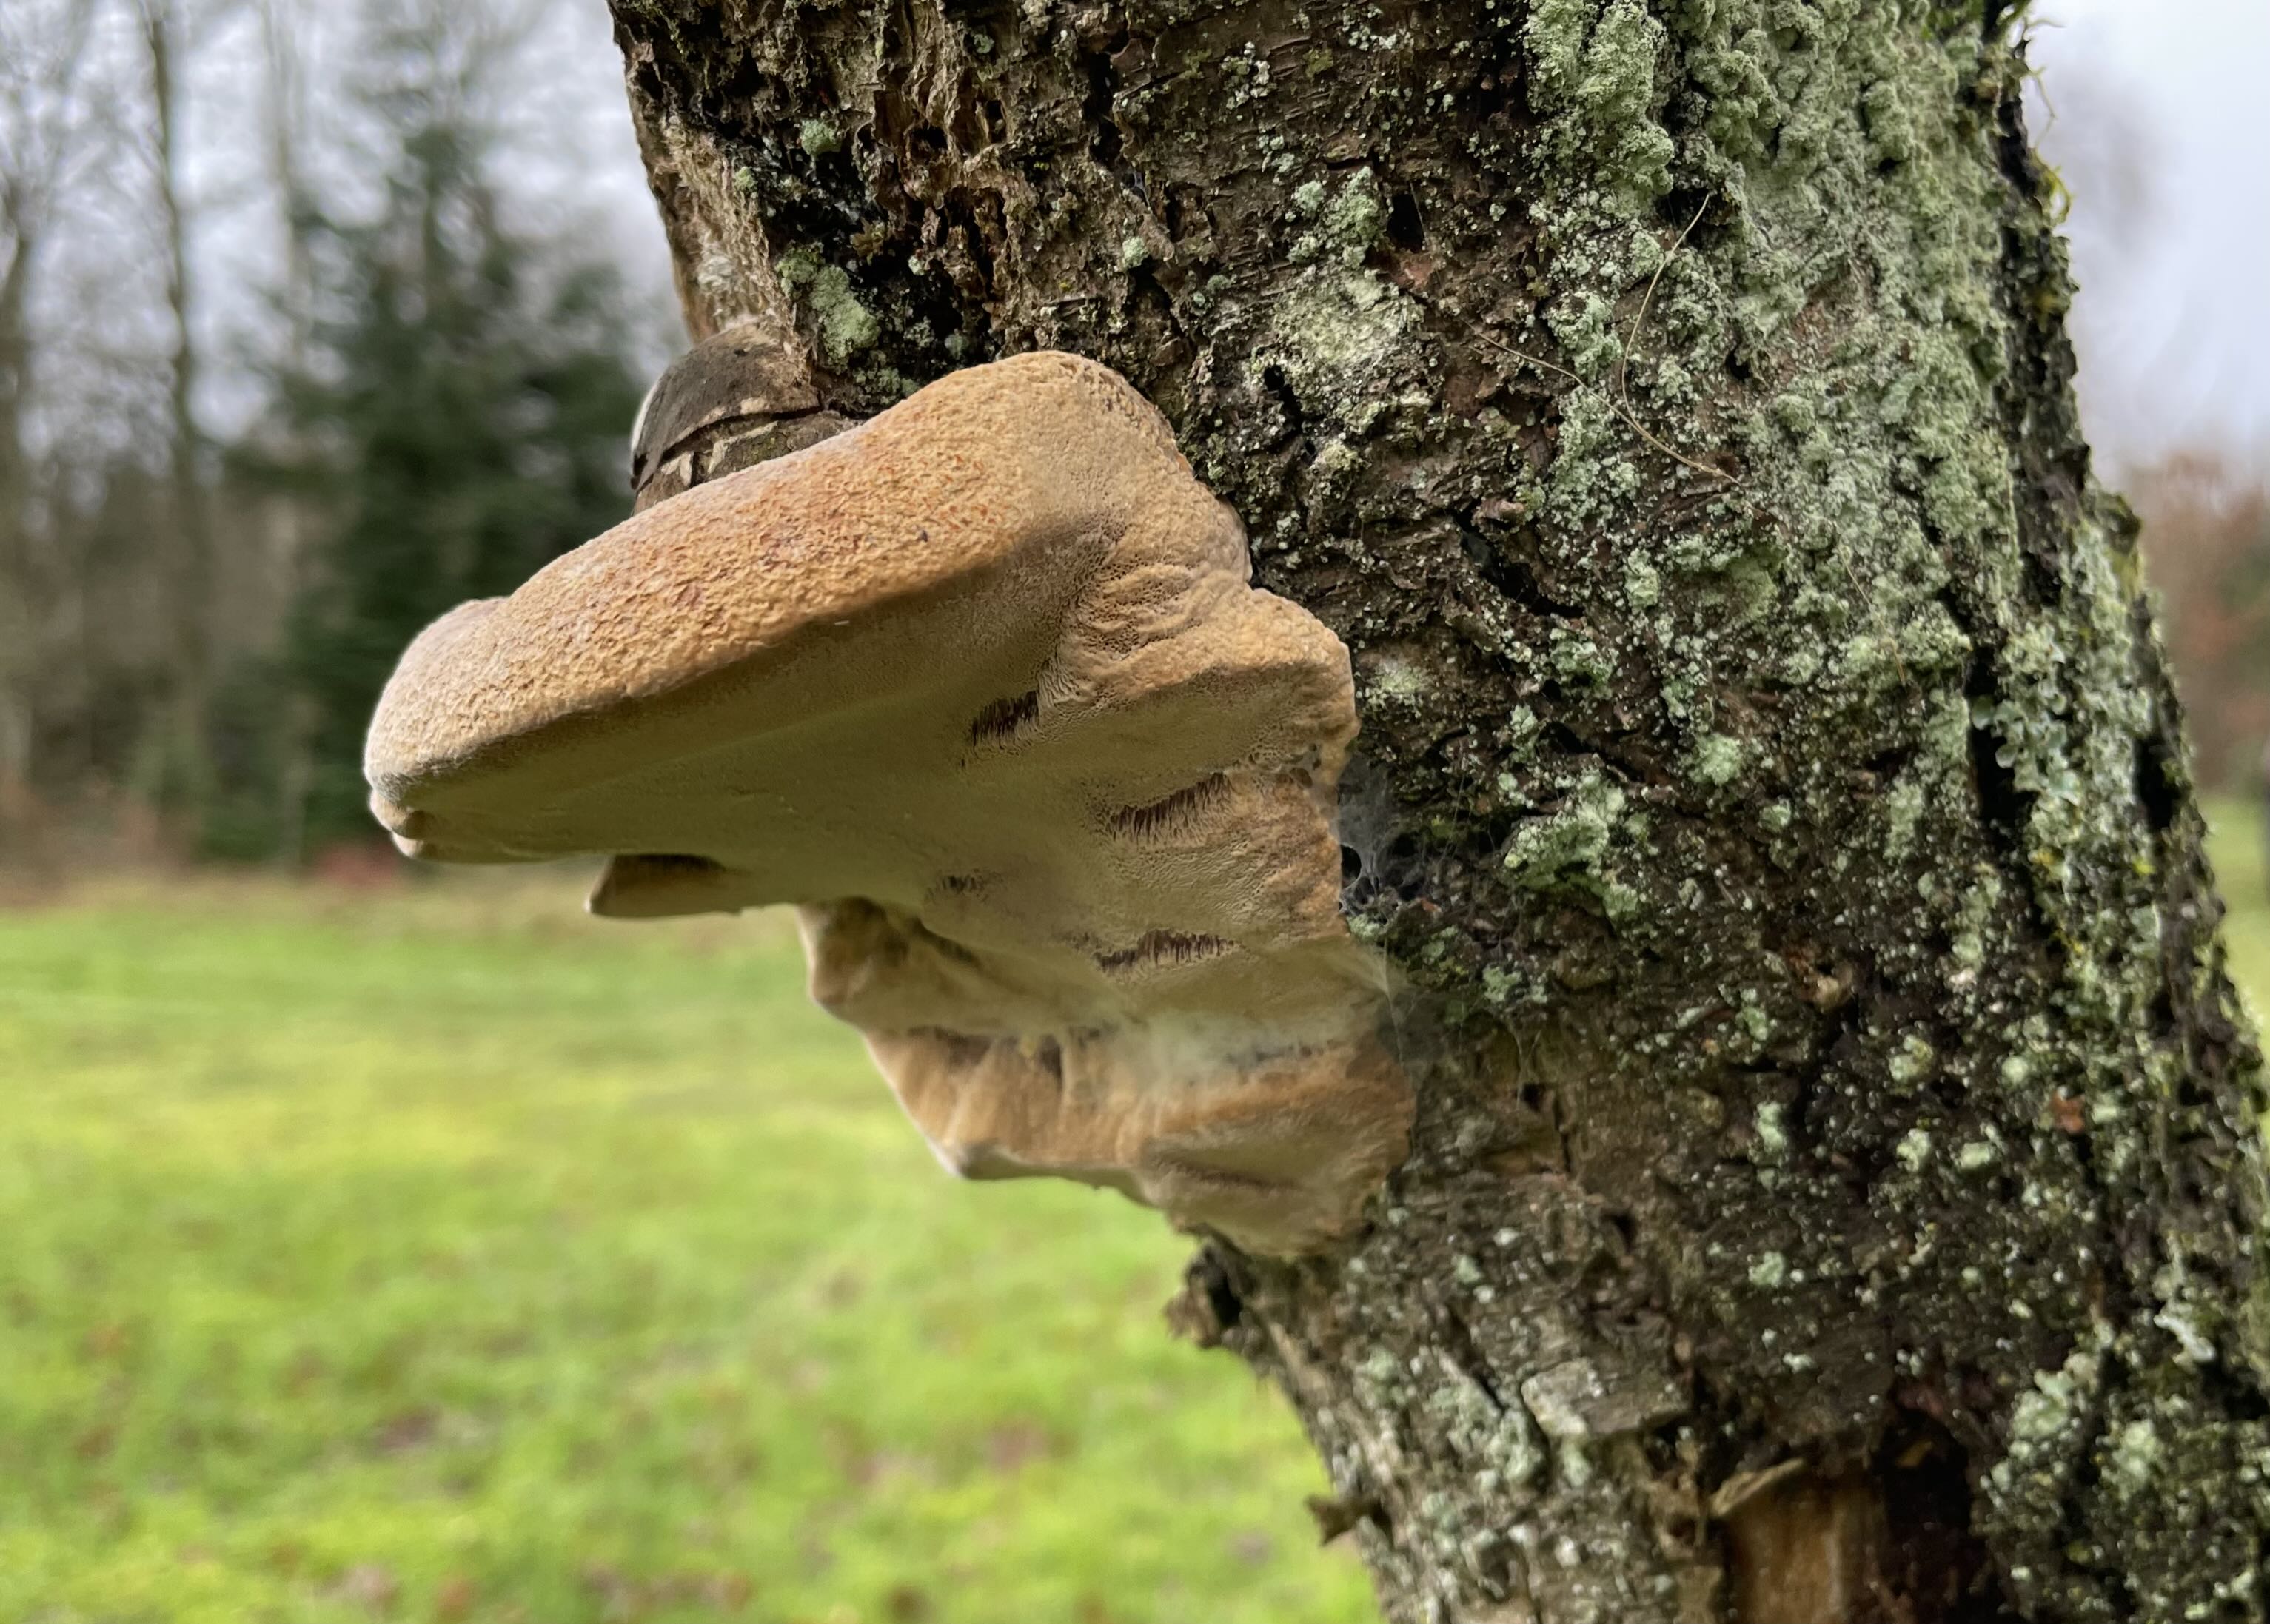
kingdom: Fungi
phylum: Basidiomycota
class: Agaricomycetes
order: Hymenochaetales
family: Hymenochaetaceae
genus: Phellinus
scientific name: Phellinus pomaceus
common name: blomme-ildporesvamp
